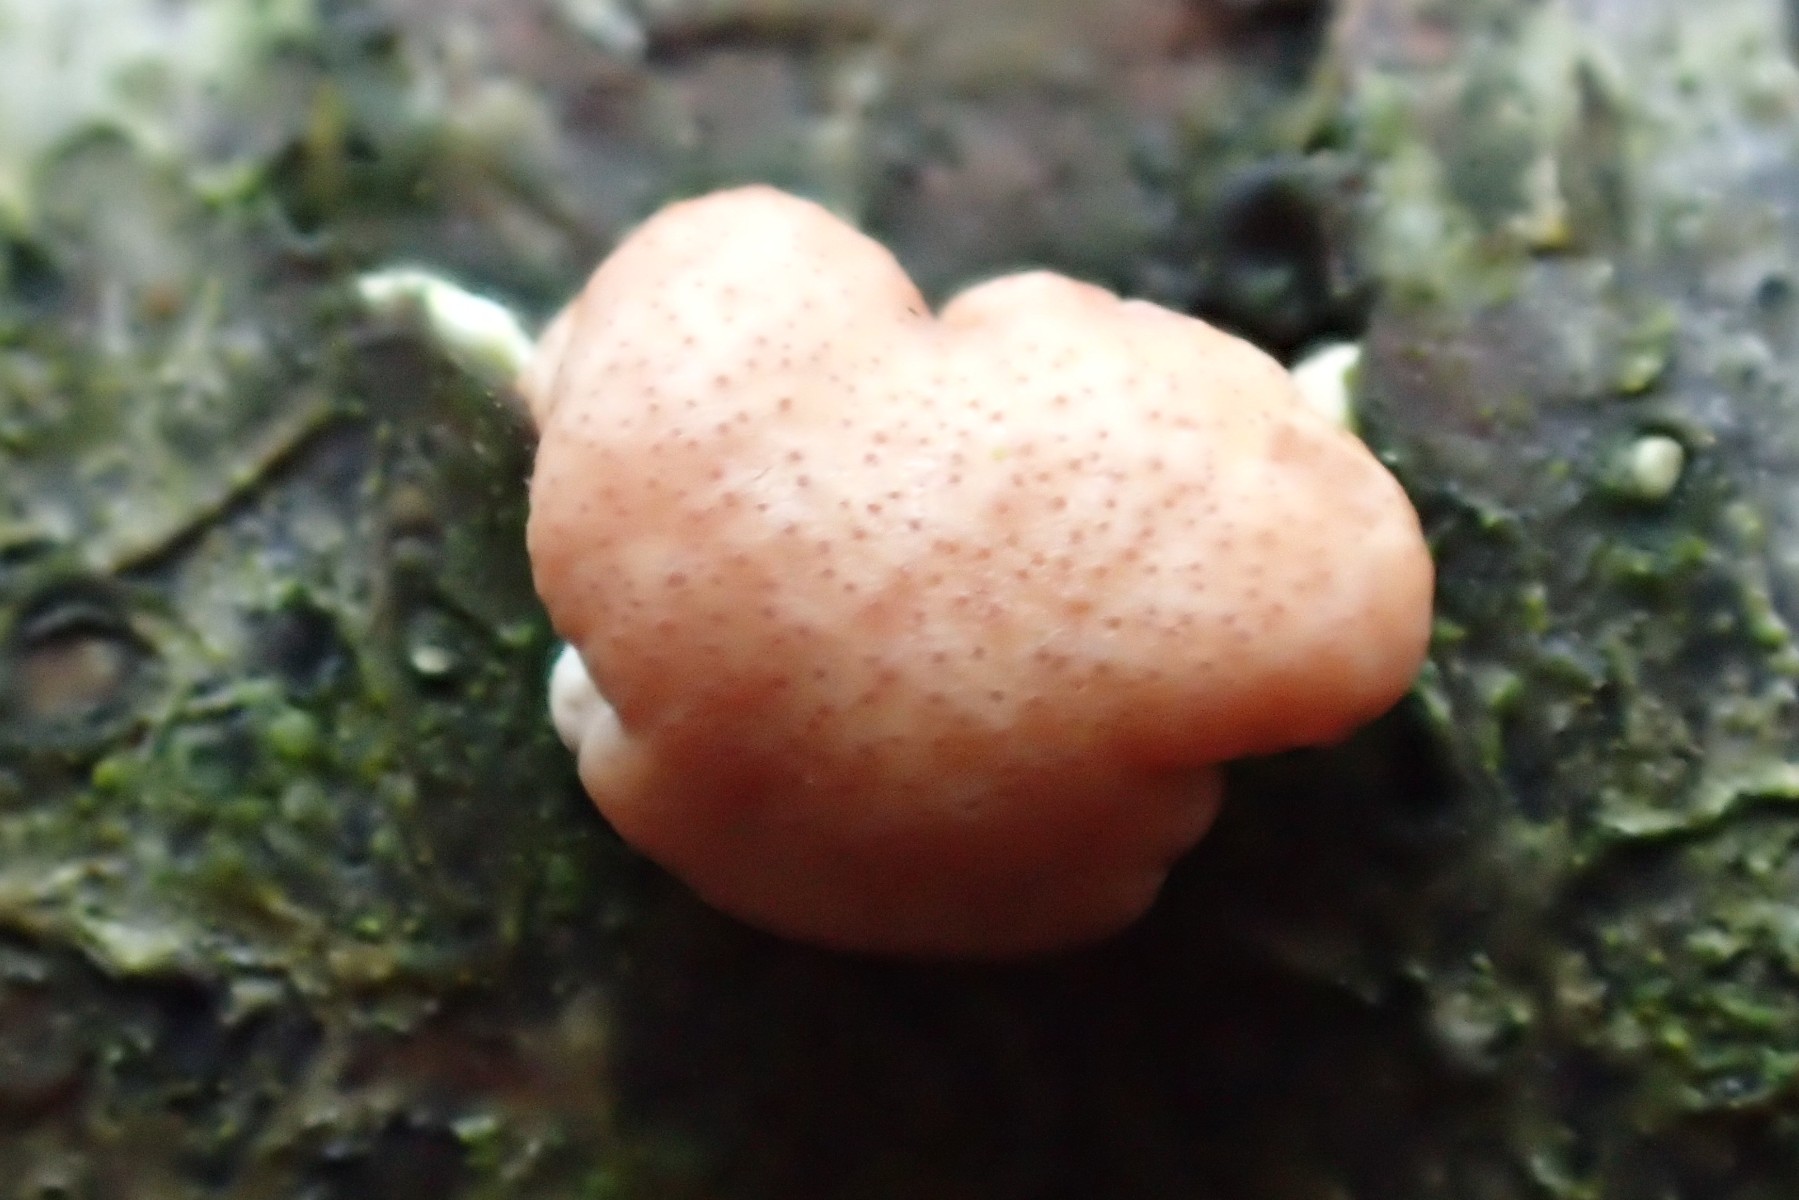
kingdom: Fungi
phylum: Ascomycota
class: Sordariomycetes
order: Hypocreales
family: Hypocreaceae
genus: Trichoderma
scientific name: Trichoderma europaeum
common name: rosabrun kødkerne
